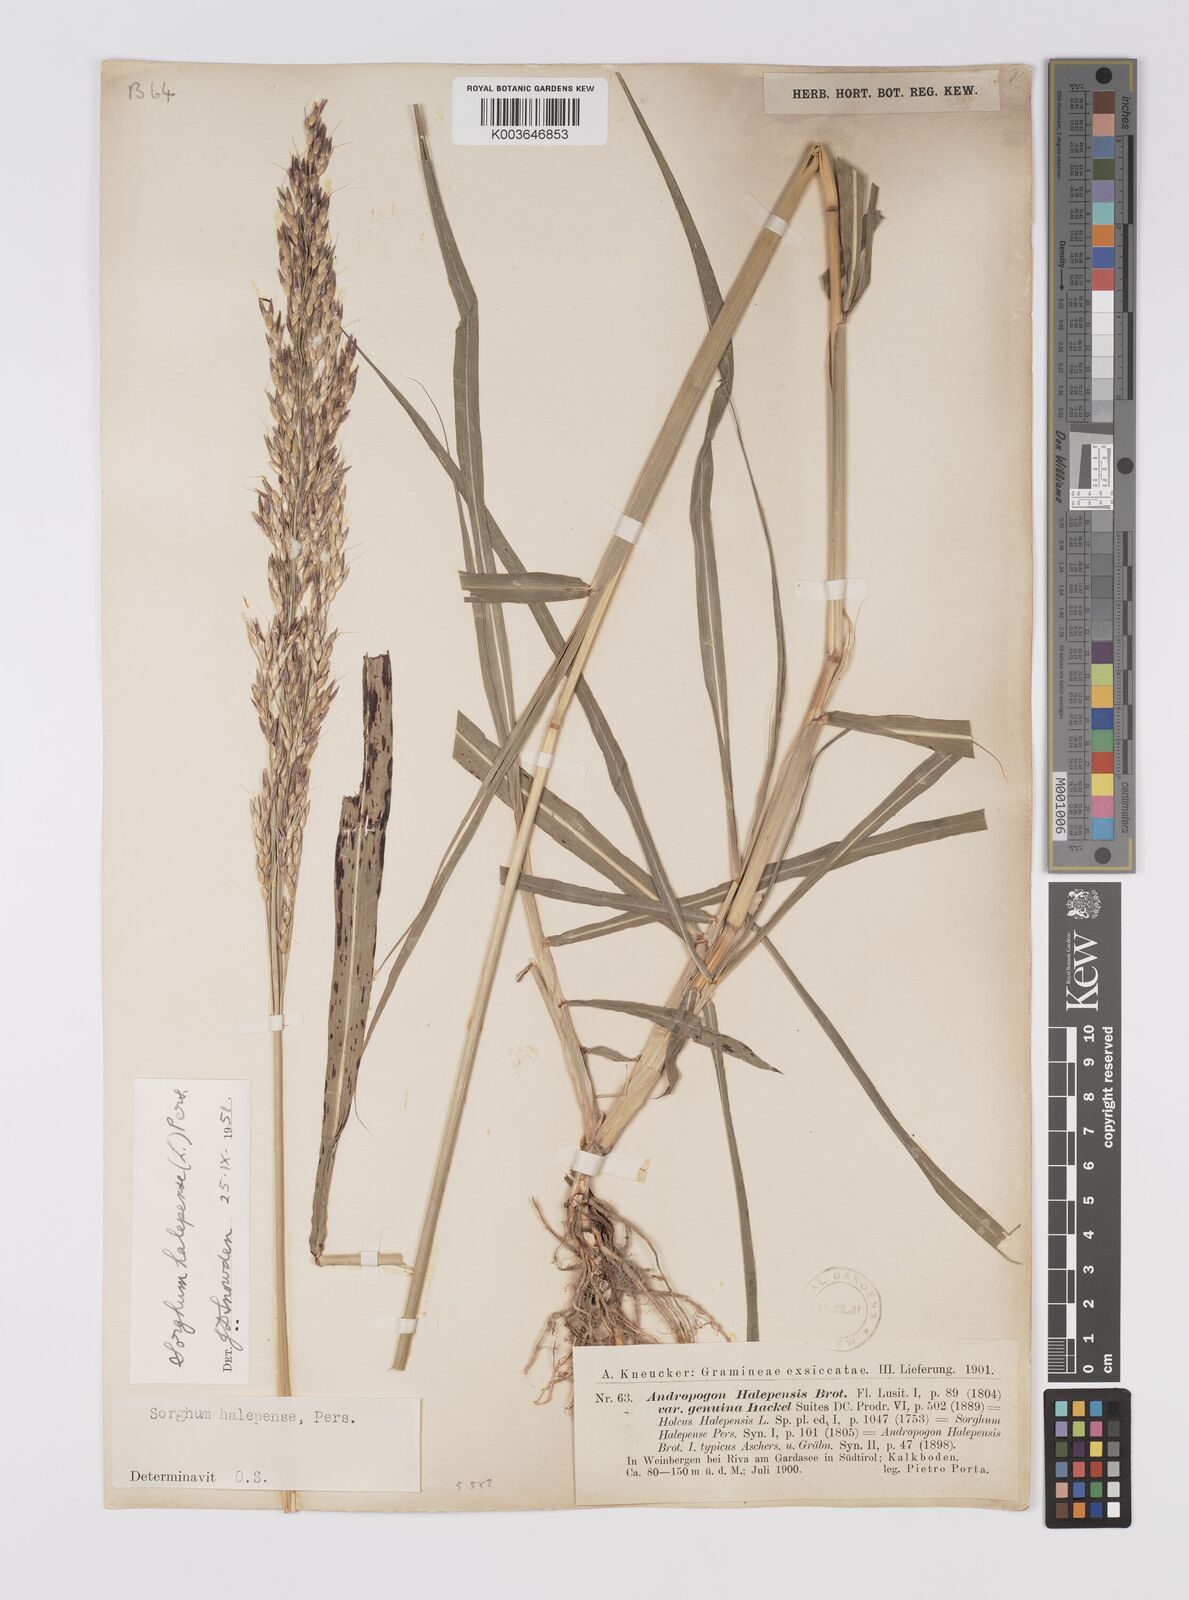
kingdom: Plantae
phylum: Tracheophyta
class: Liliopsida
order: Poales
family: Poaceae
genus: Sorghum
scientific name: Sorghum halepense
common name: Johnson-grass
